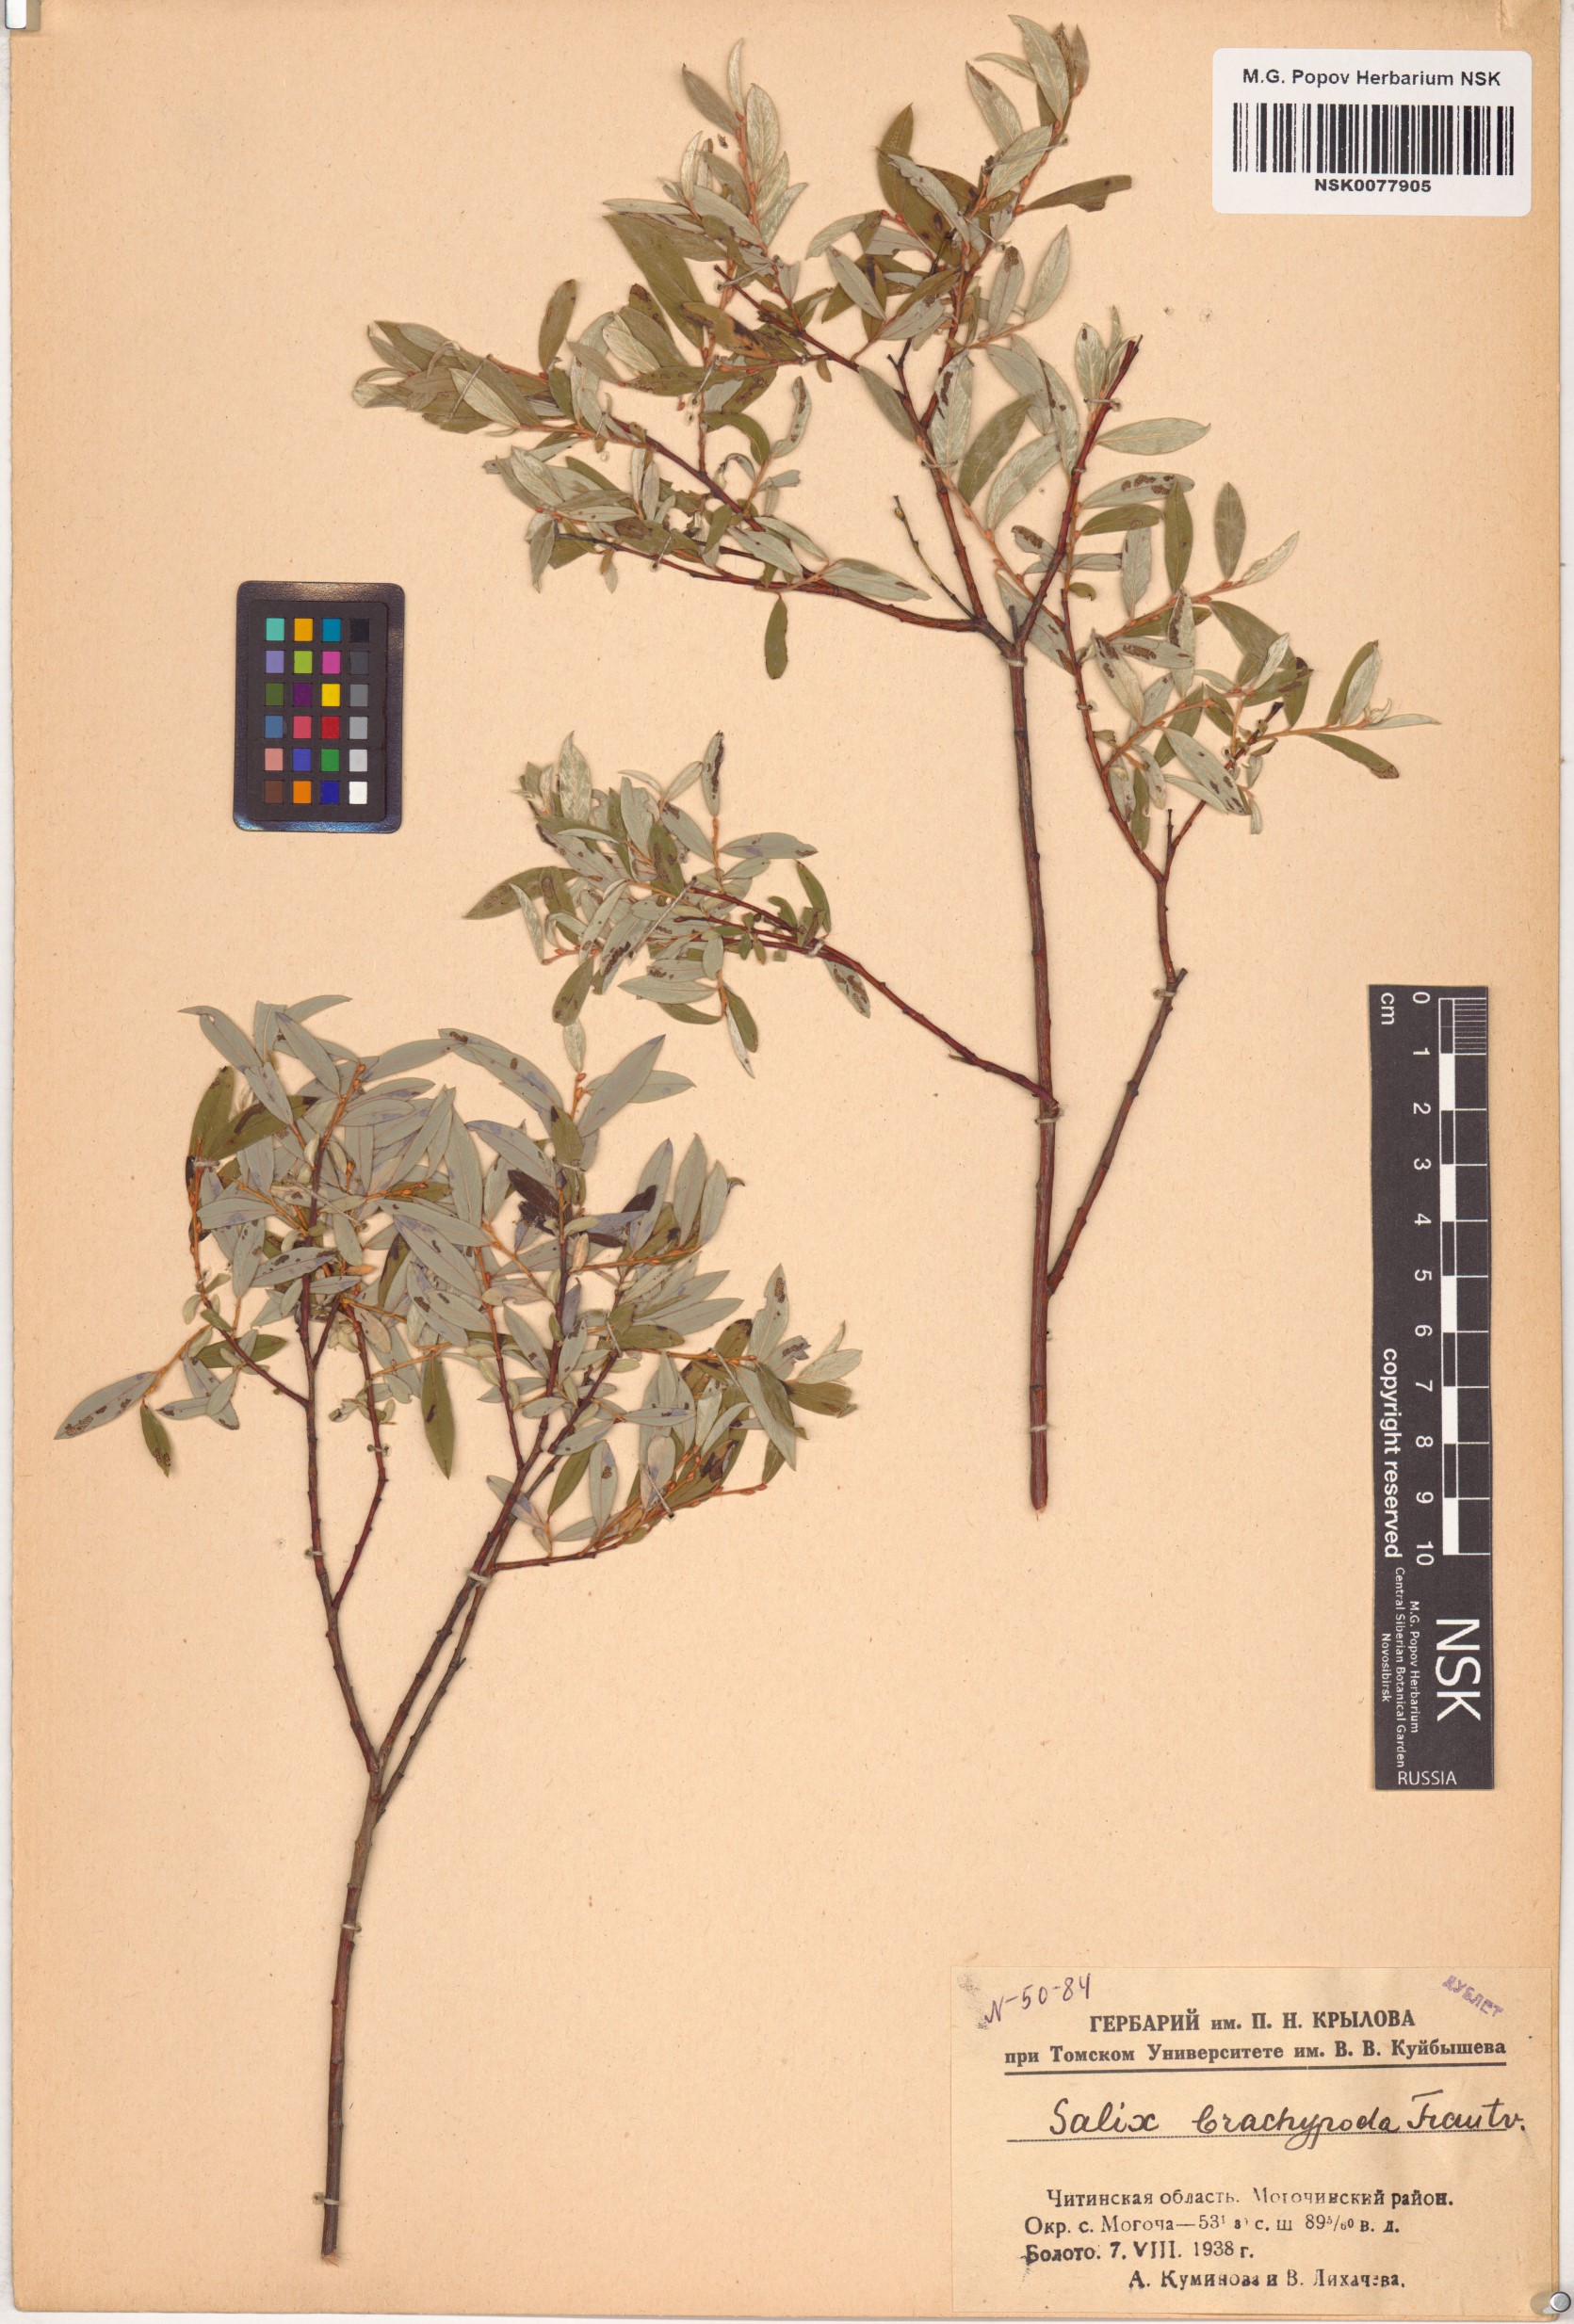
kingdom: Plantae
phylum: Tracheophyta
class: Magnoliopsida
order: Malpighiales
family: Salicaceae
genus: Salix
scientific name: Salix brachypoda
